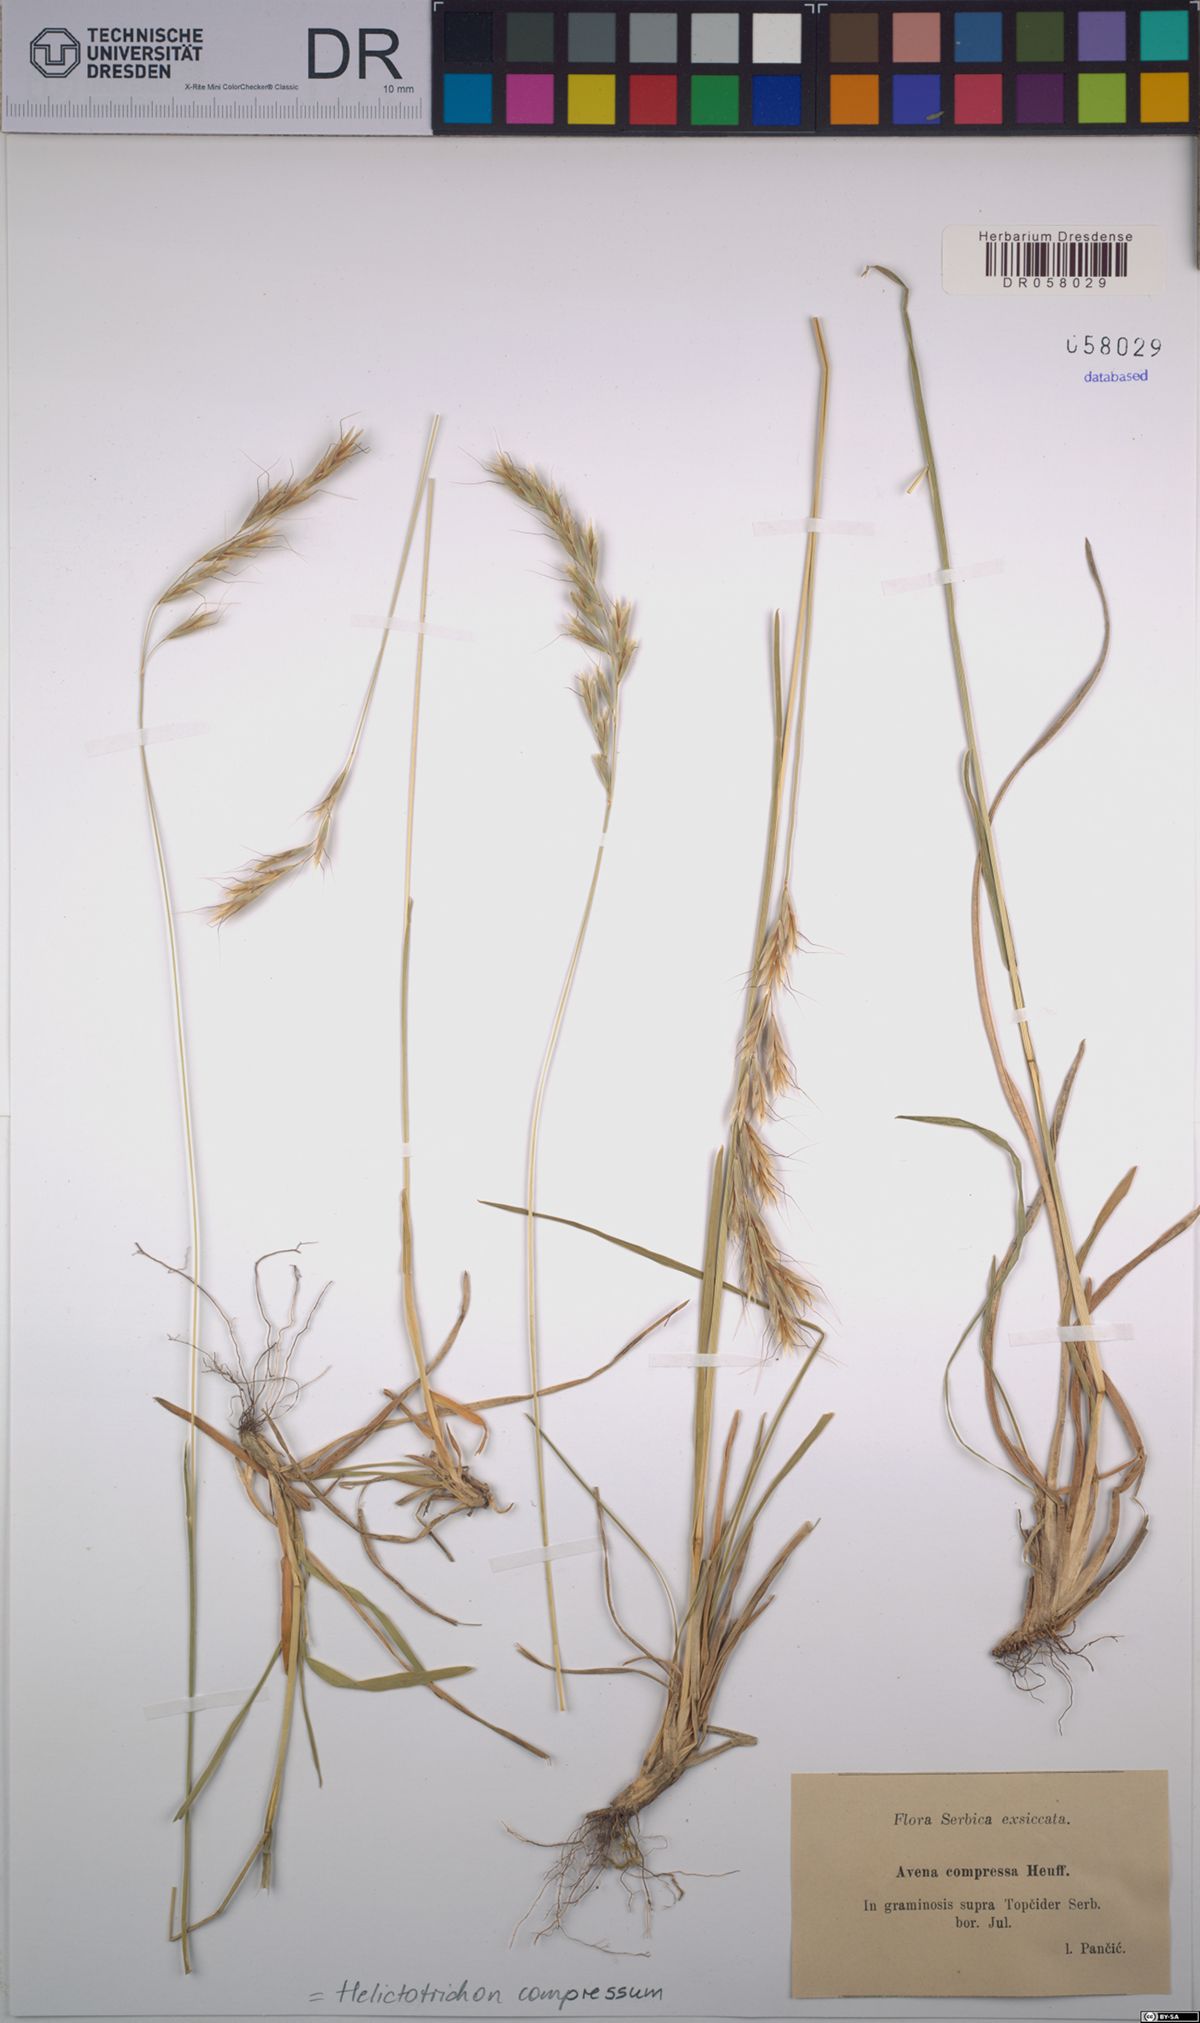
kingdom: Plantae
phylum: Tracheophyta
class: Liliopsida
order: Poales
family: Poaceae
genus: Helictochloa
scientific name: Helictochloa compressa
